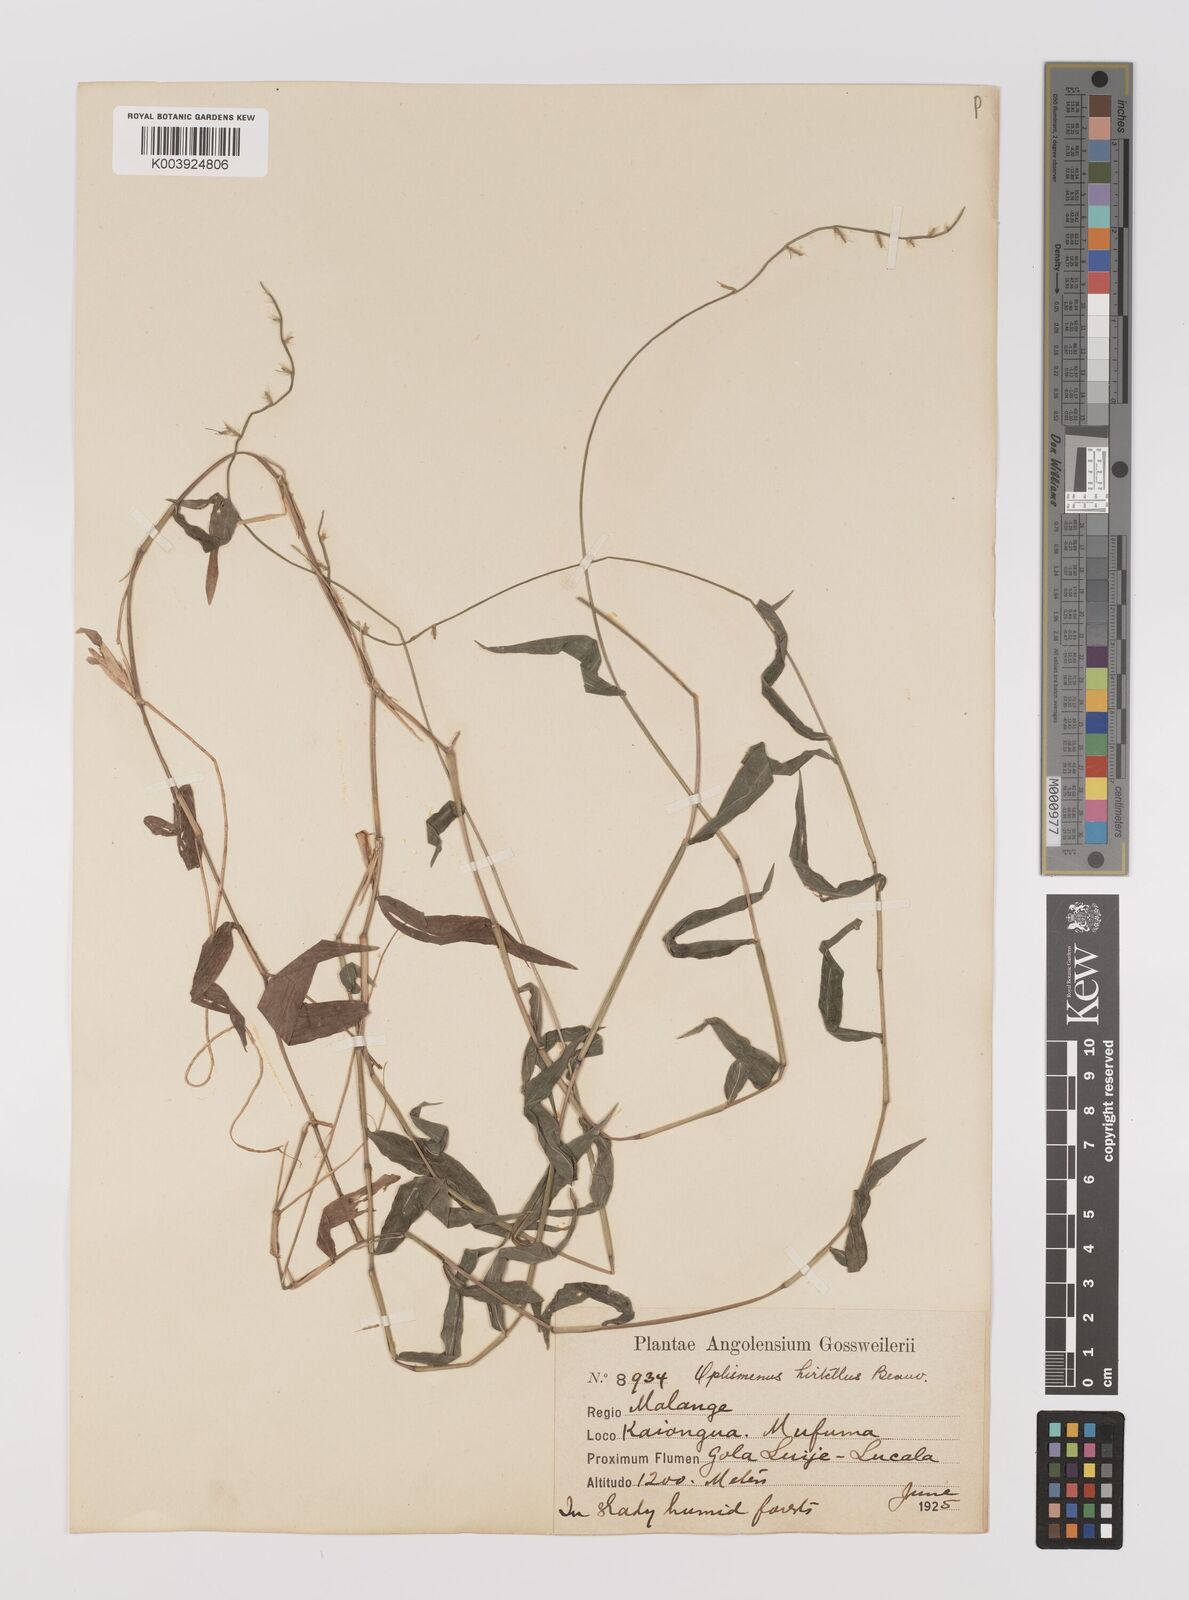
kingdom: Plantae
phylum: Tracheophyta
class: Liliopsida
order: Poales
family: Poaceae
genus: Oplismenus
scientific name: Oplismenus hirtellus
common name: Basketgrass
